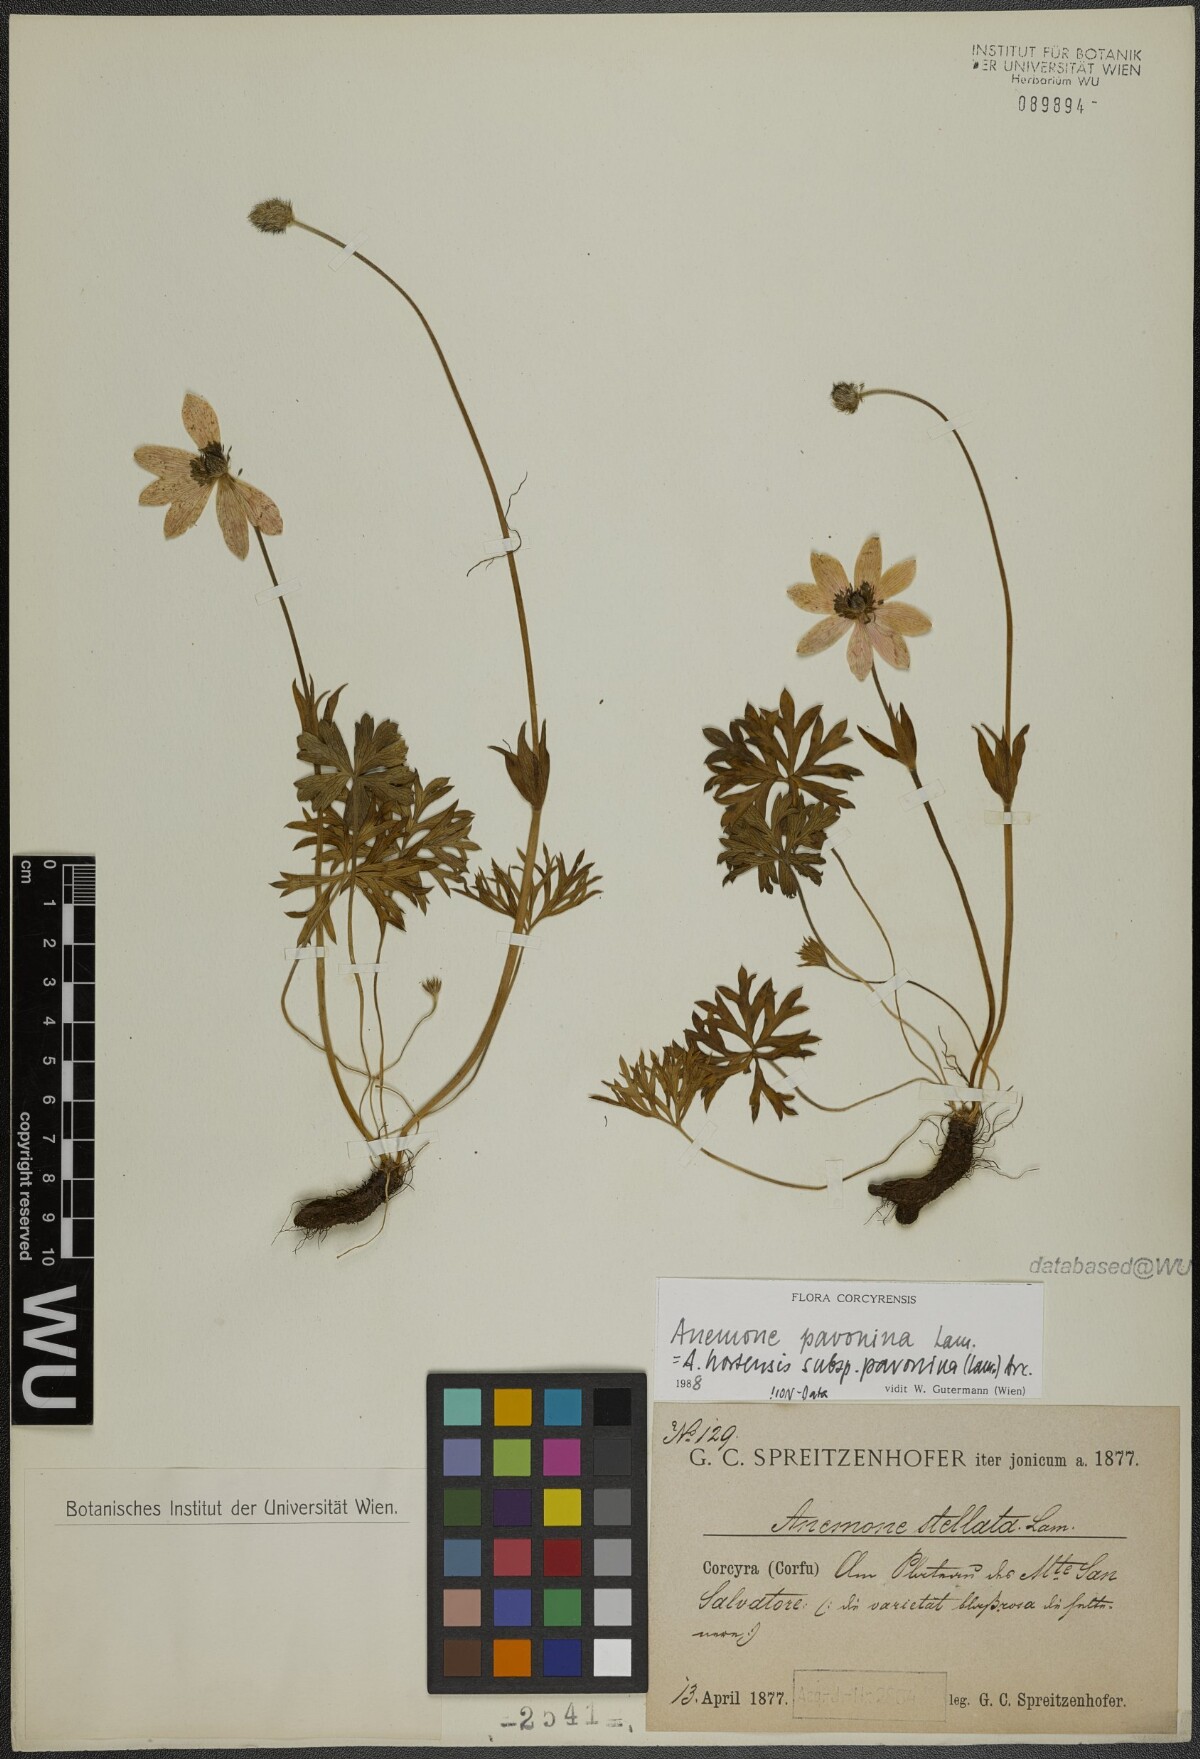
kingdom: Plantae
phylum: Tracheophyta
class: Magnoliopsida
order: Ranunculales
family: Ranunculaceae
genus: Anemone
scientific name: Anemone pavonina
